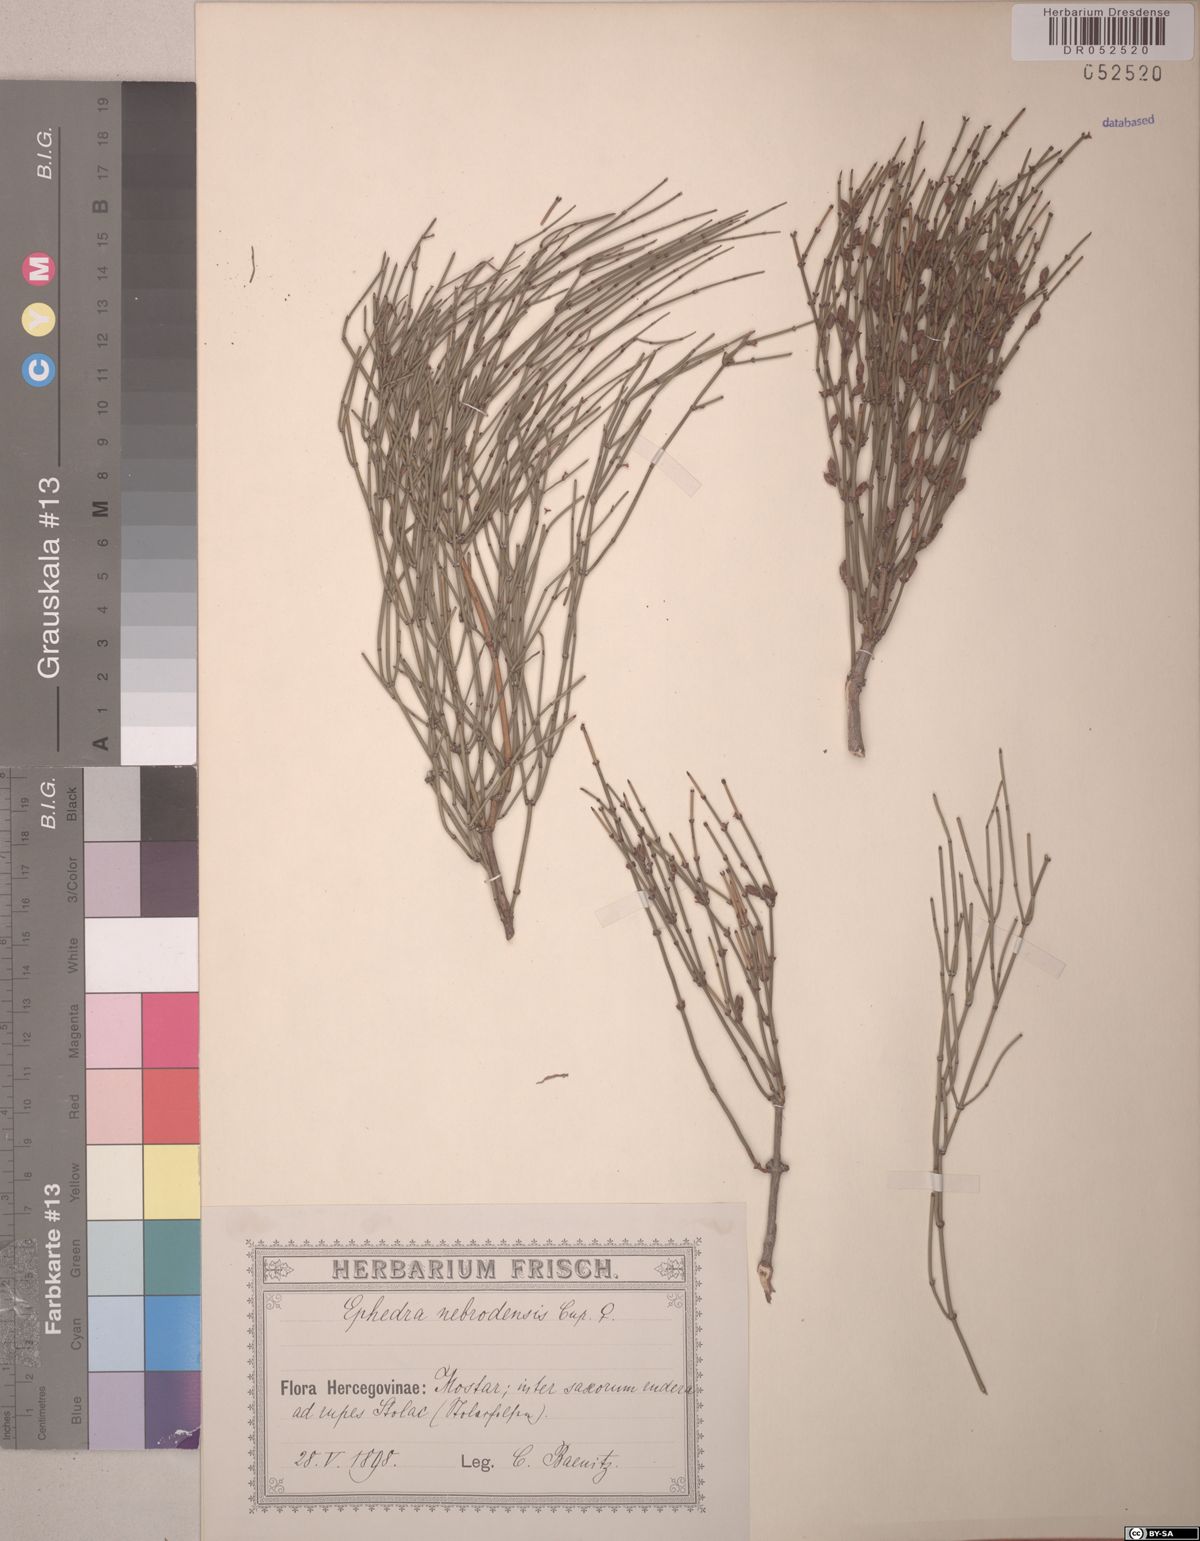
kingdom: Plantae
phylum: Tracheophyta
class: Gnetopsida
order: Ephedrales
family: Ephedraceae
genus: Ephedra
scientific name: Ephedra foeminea
